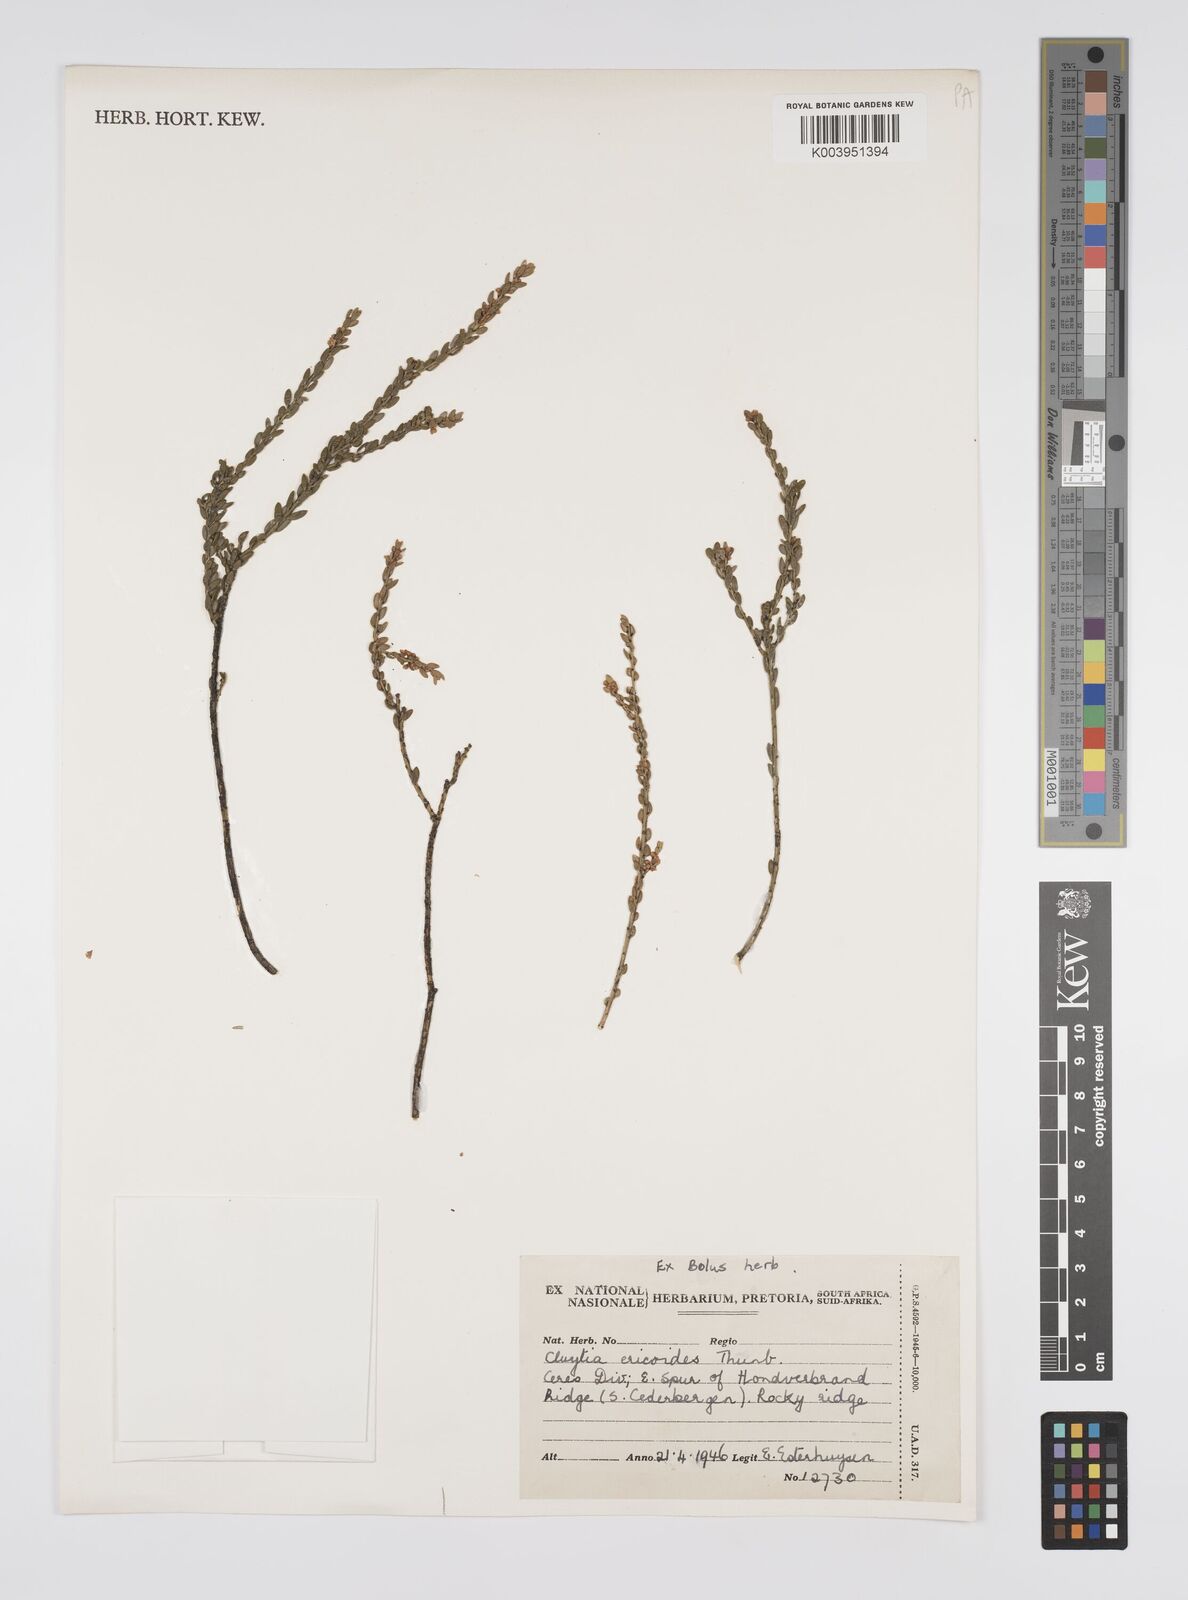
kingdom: Plantae
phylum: Tracheophyta
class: Magnoliopsida
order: Malpighiales
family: Peraceae
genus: Clutia
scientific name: Clutia
